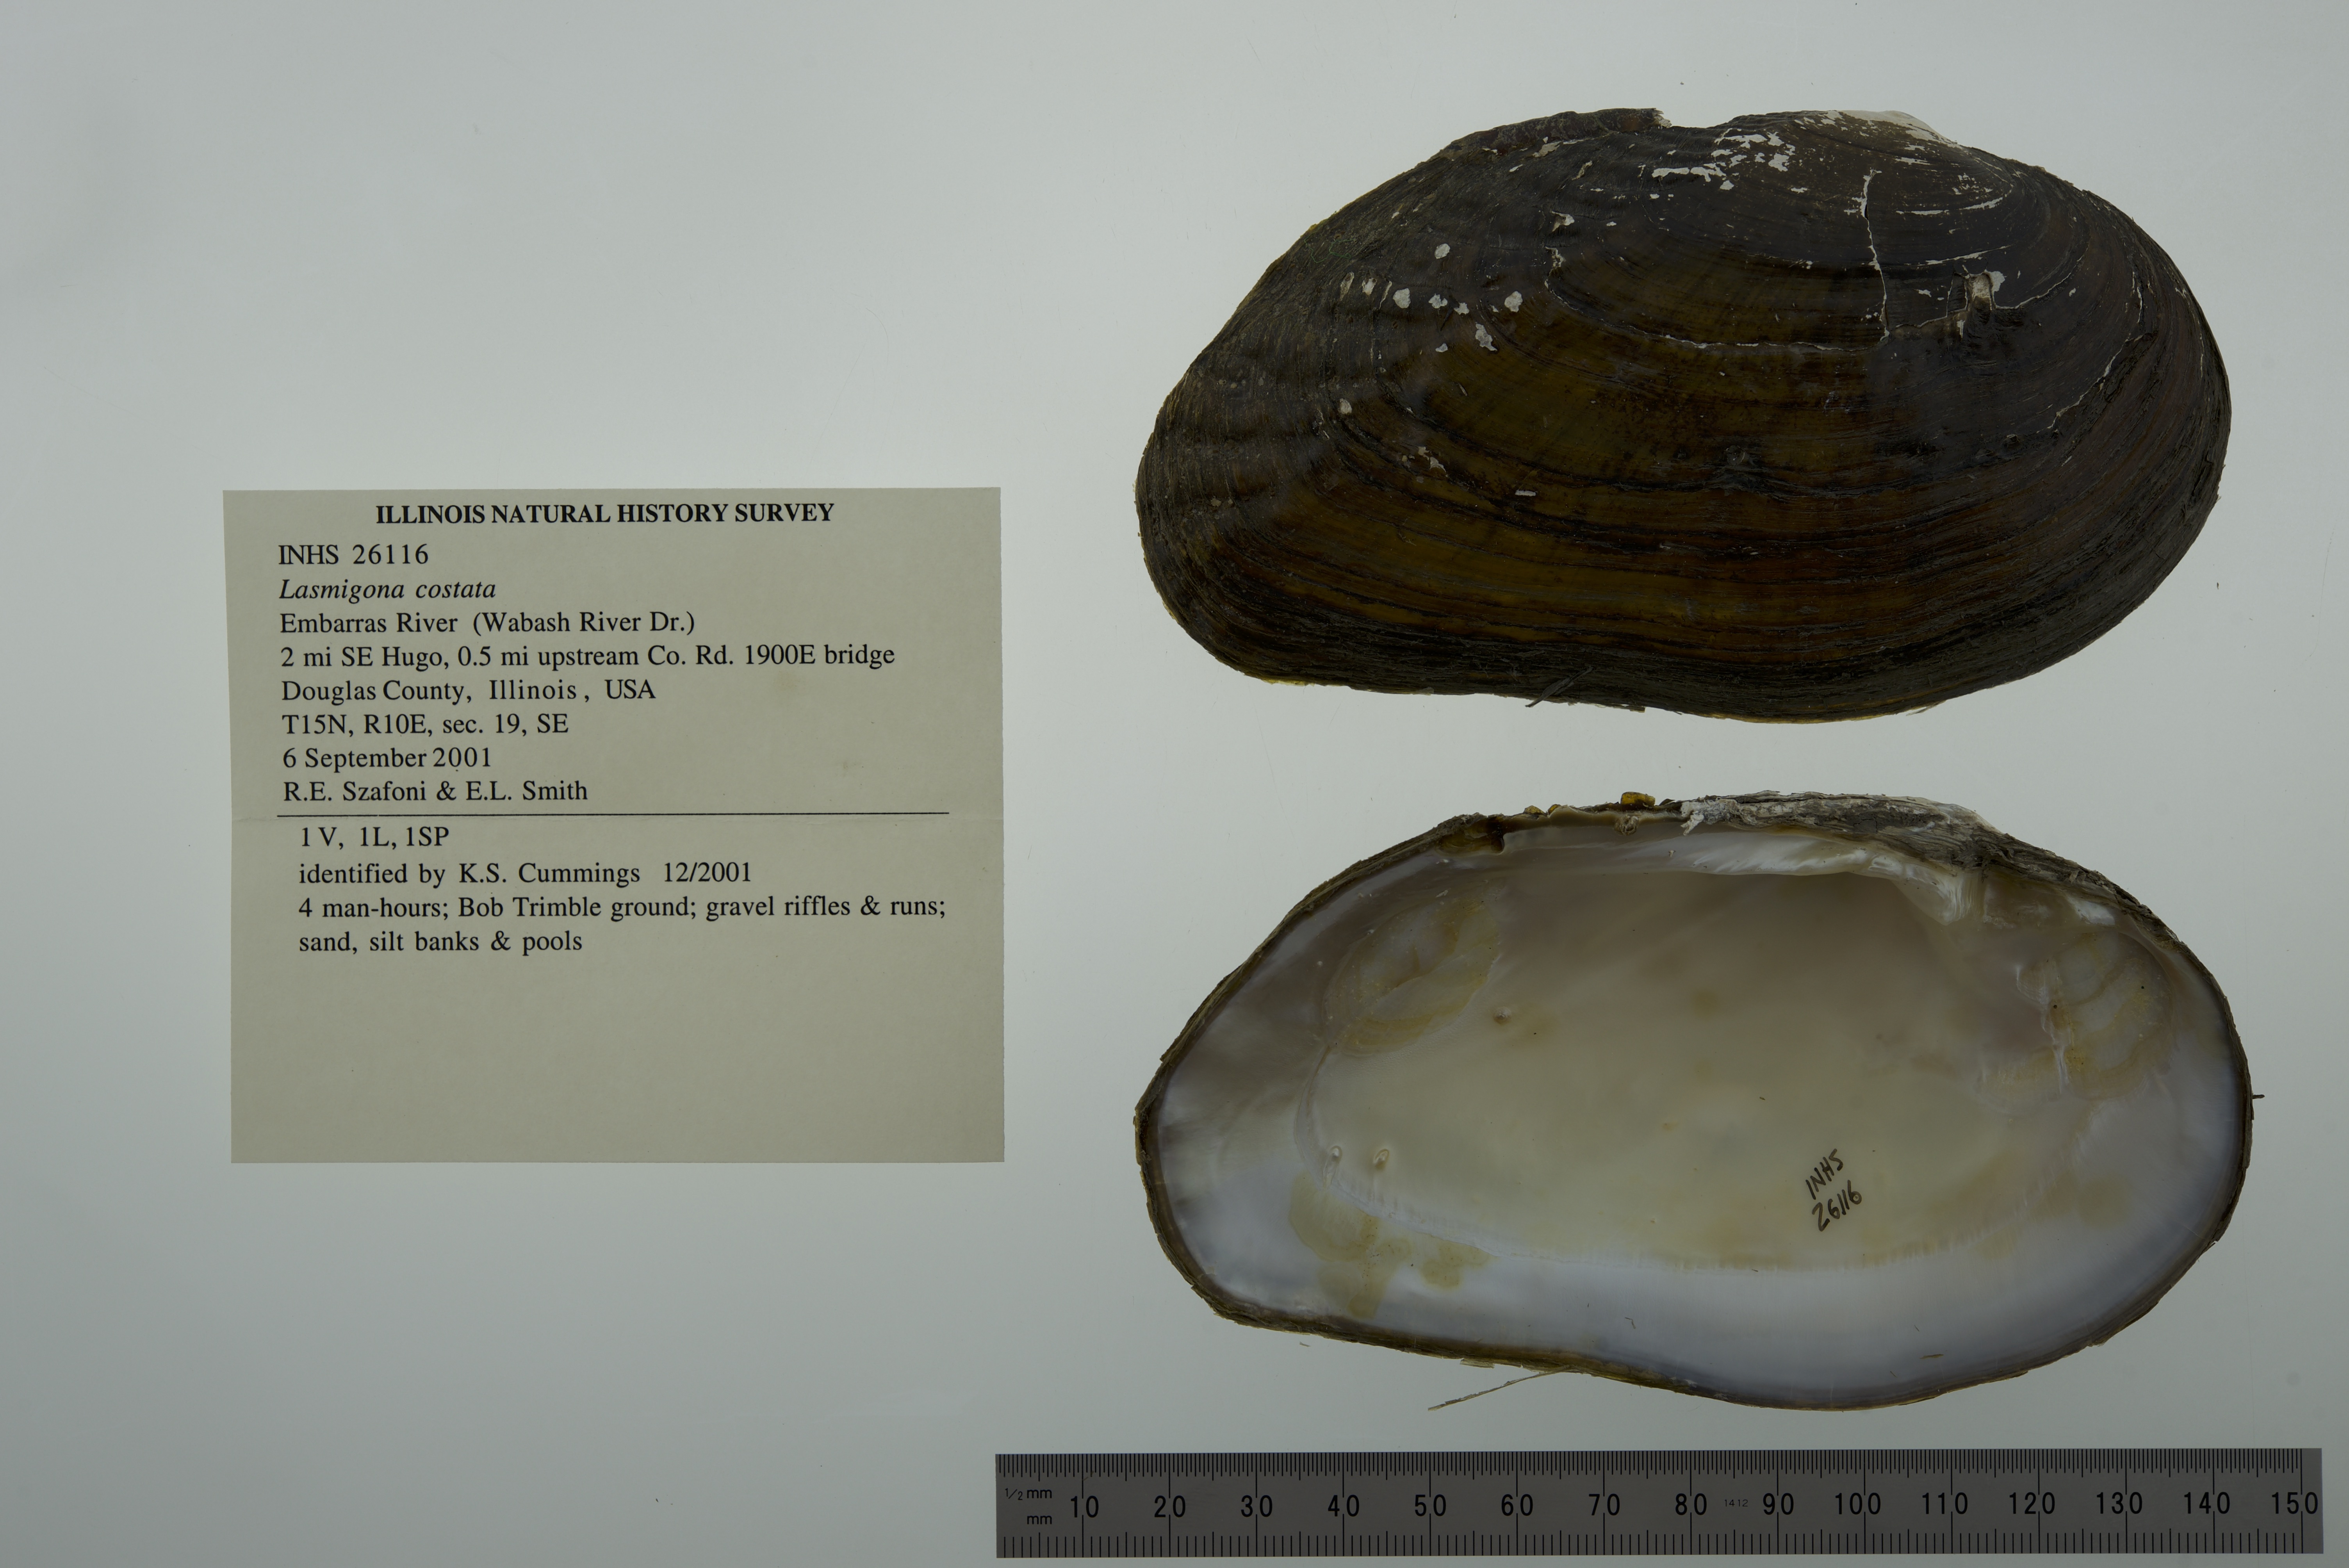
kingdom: Animalia
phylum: Mollusca
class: Bivalvia
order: Unionida
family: Unionidae
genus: Lasmigona
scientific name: Lasmigona costata
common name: Flutedshell
